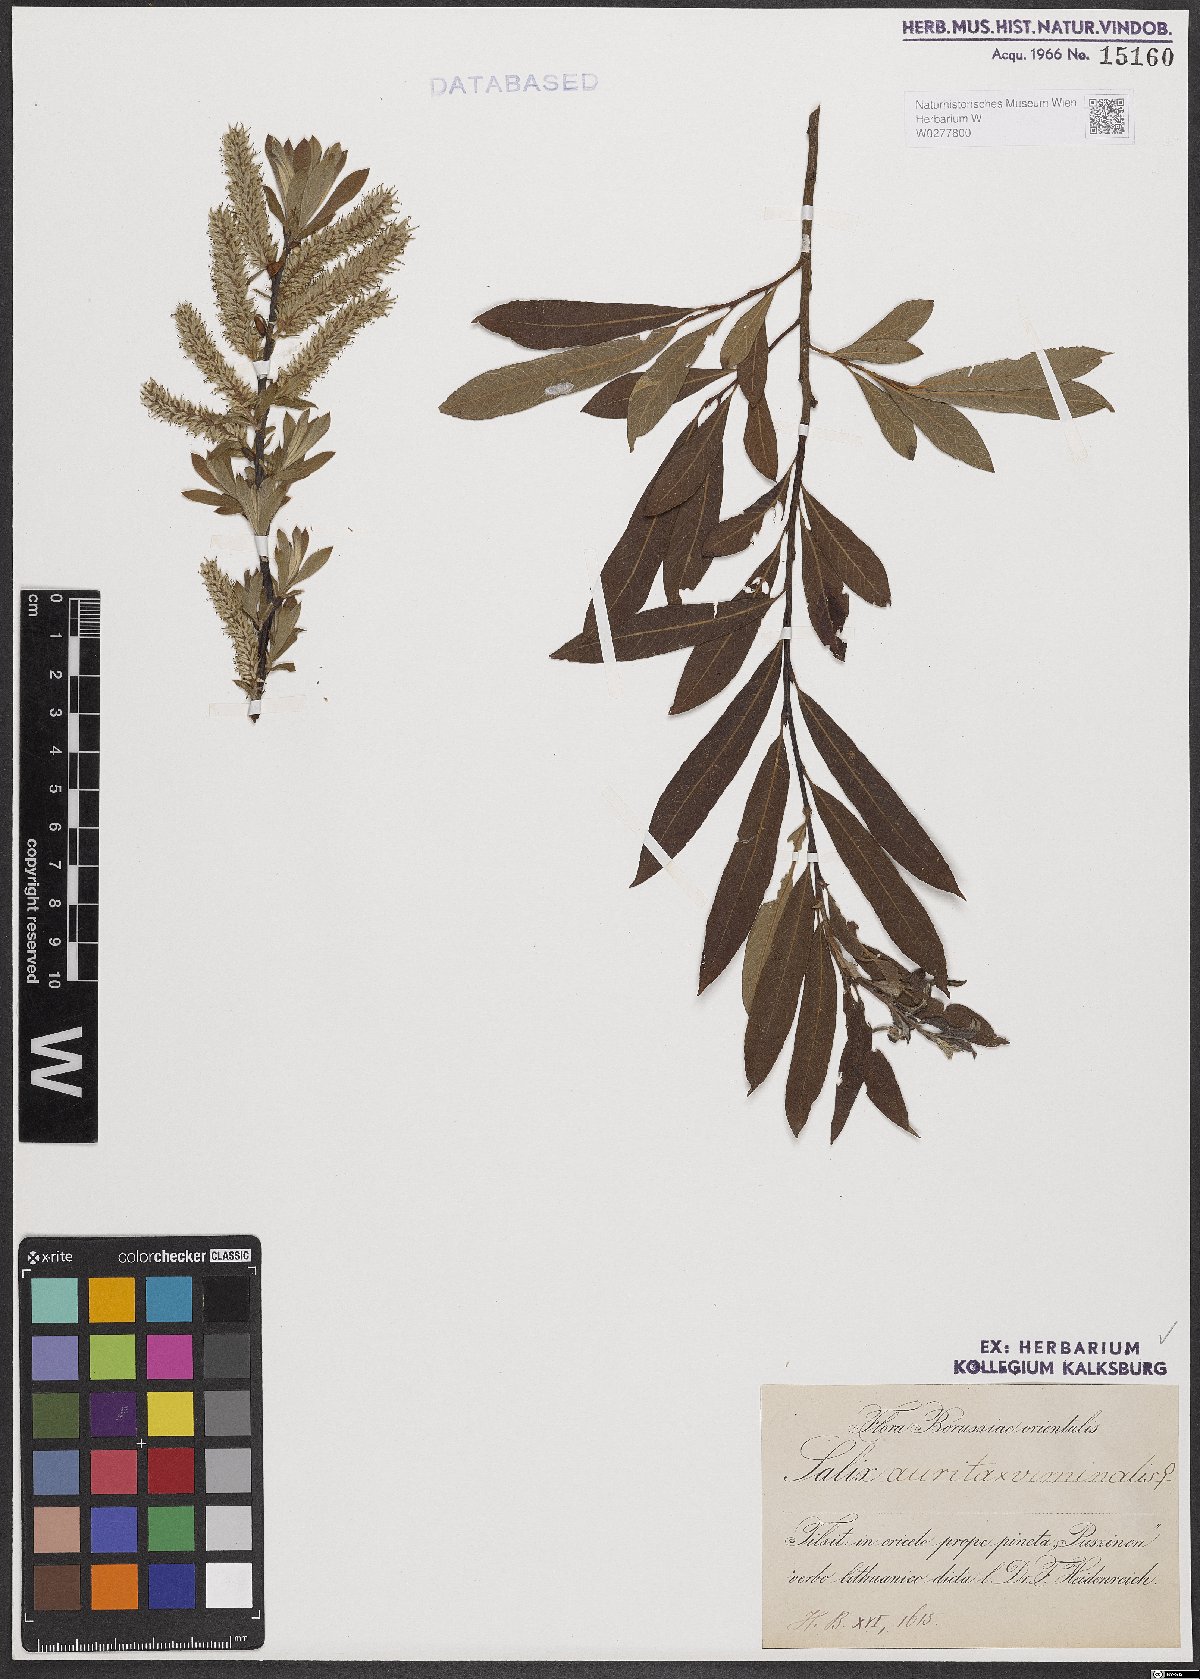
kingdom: Plantae
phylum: Tracheophyta
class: Magnoliopsida
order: Malpighiales
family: Salicaceae
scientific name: Salicaceae
